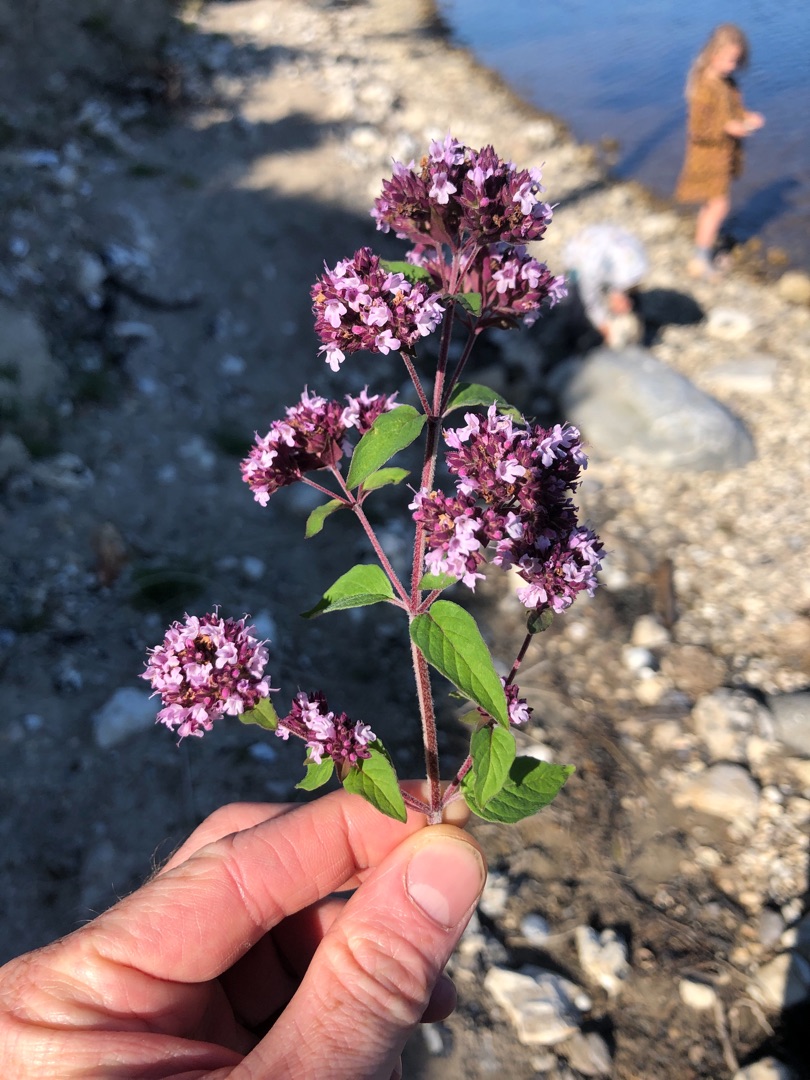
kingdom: Plantae
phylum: Tracheophyta
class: Magnoliopsida
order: Lamiales
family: Lamiaceae
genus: Origanum
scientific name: Origanum vulgare
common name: Merian
